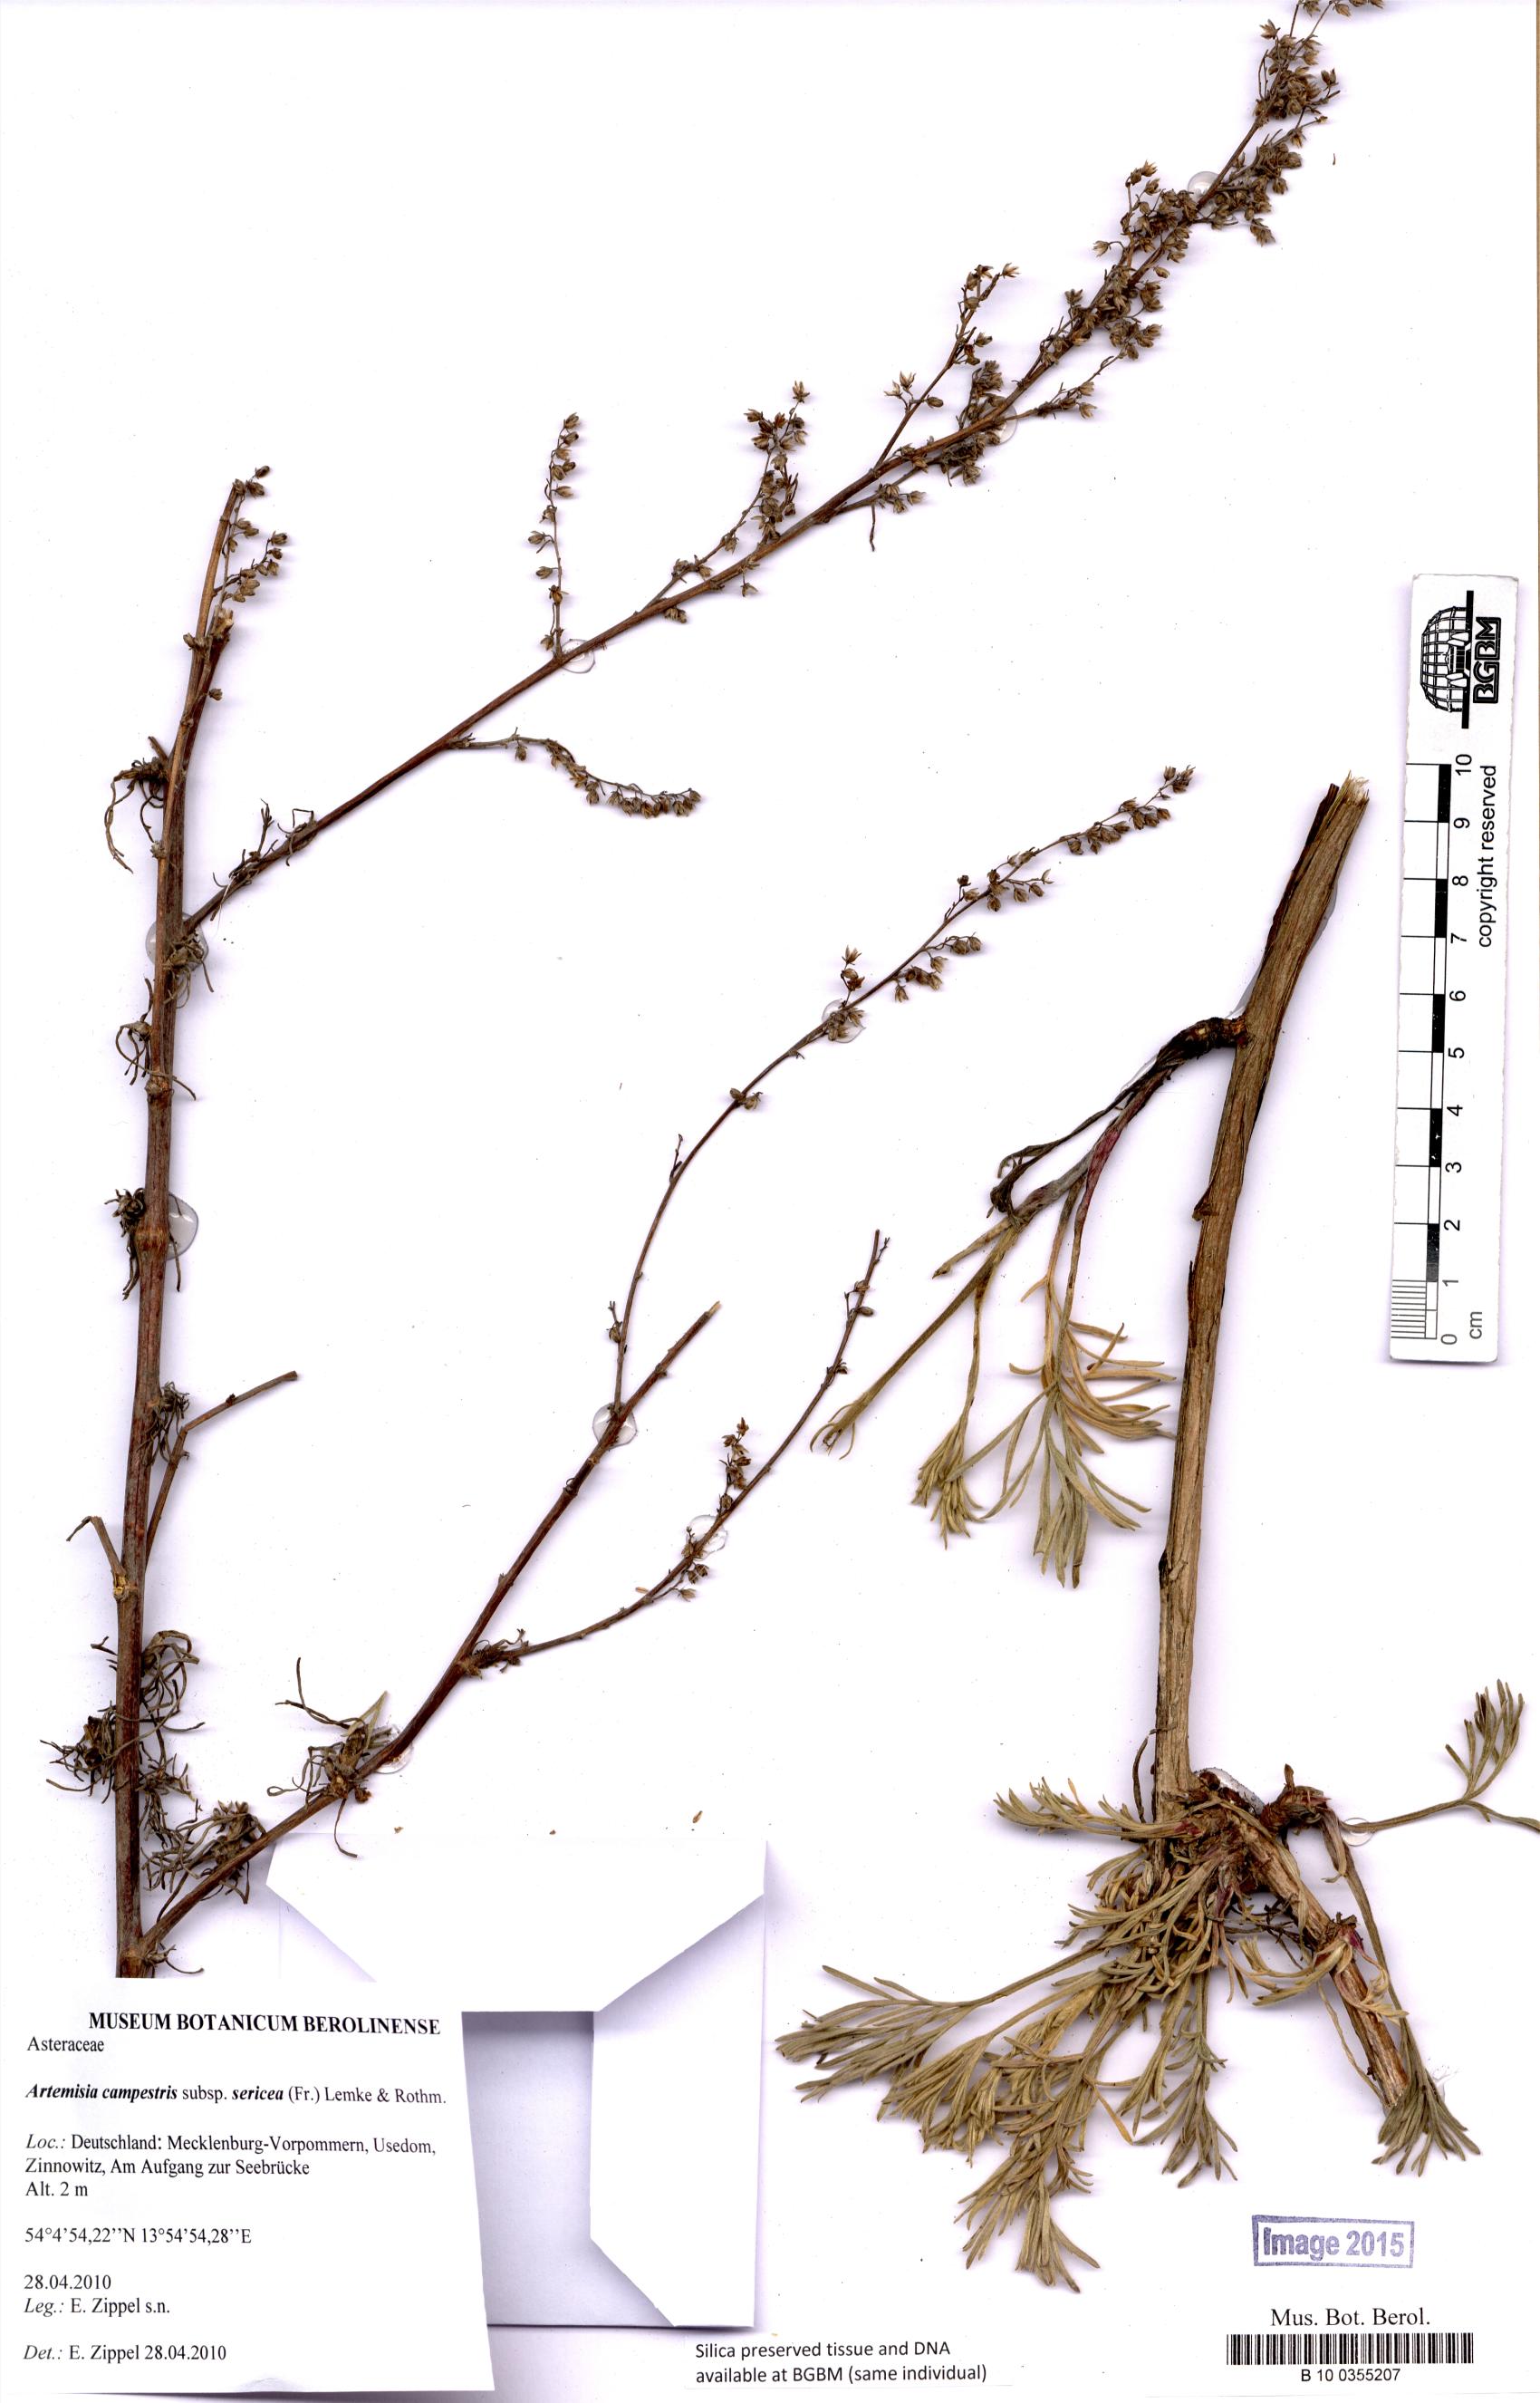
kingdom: Plantae
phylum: Tracheophyta
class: Magnoliopsida
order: Asterales
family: Asteraceae
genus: Artemisia
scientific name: Artemisia campestris
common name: Field wormwood
